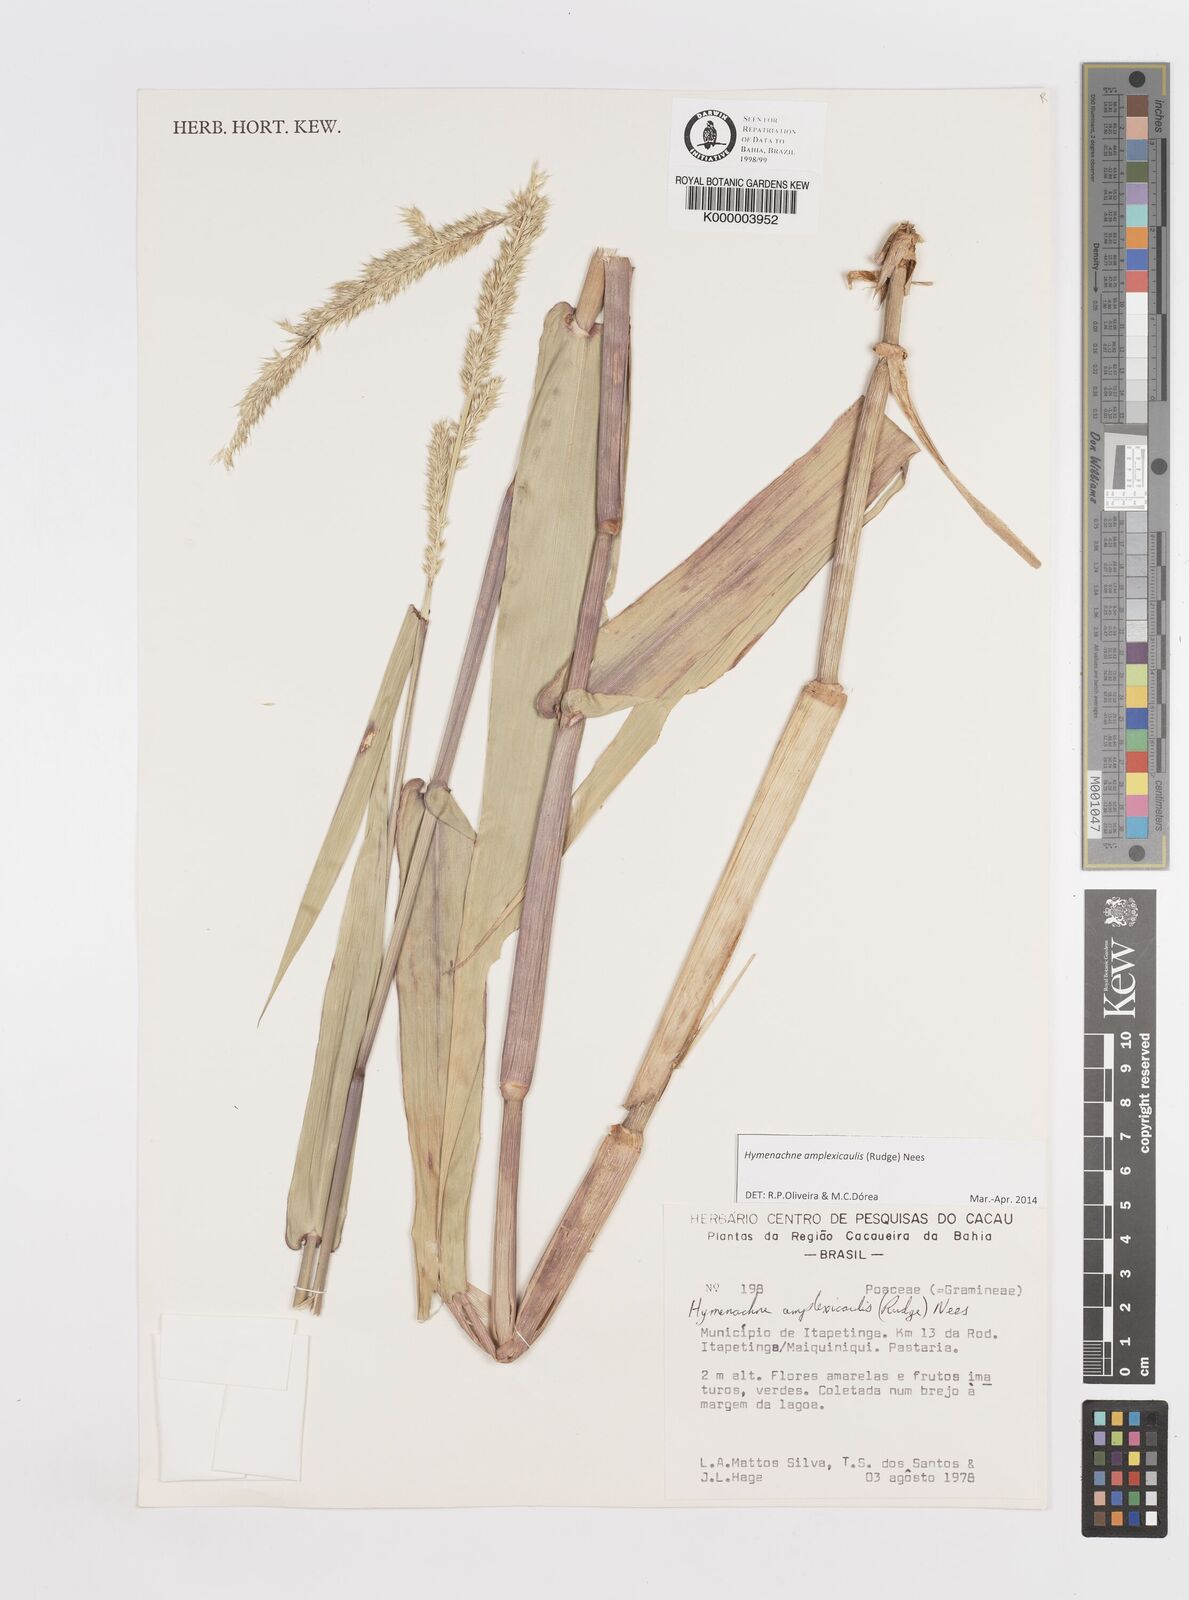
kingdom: Plantae
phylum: Tracheophyta
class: Liliopsida
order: Poales
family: Poaceae
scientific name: Poaceae
